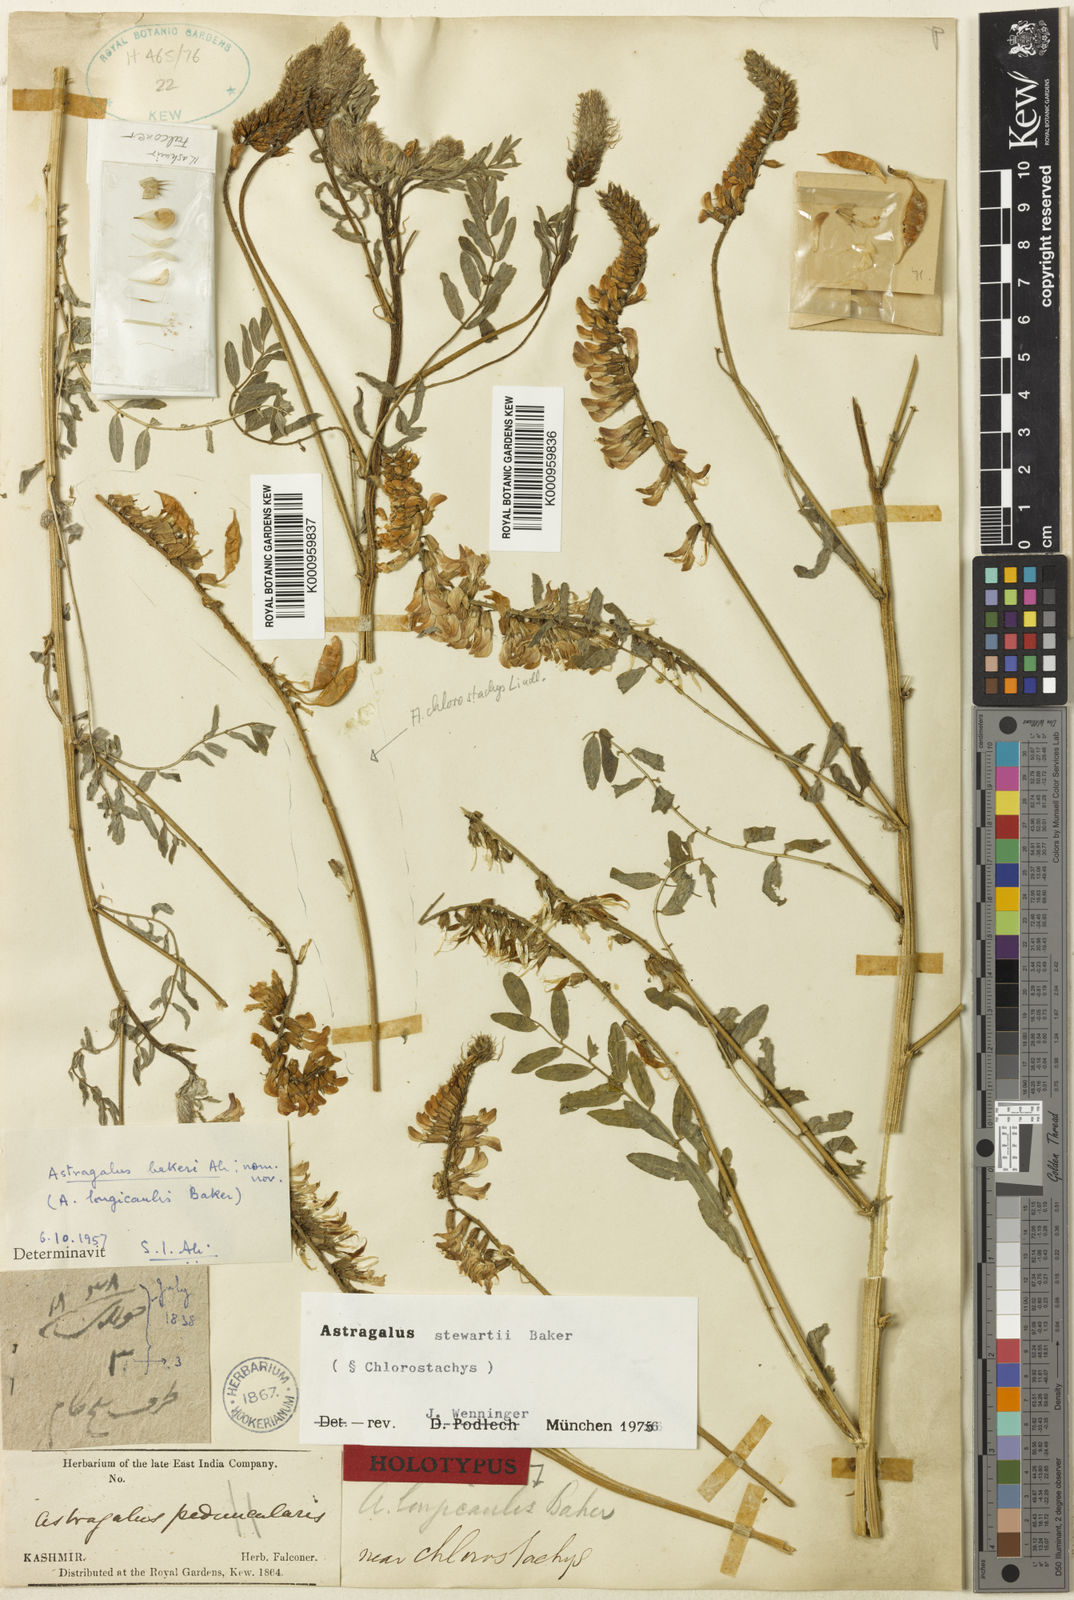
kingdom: Plantae
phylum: Tracheophyta
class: Magnoliopsida
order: Fabales
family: Fabaceae
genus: Astragalus
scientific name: Astragalus
